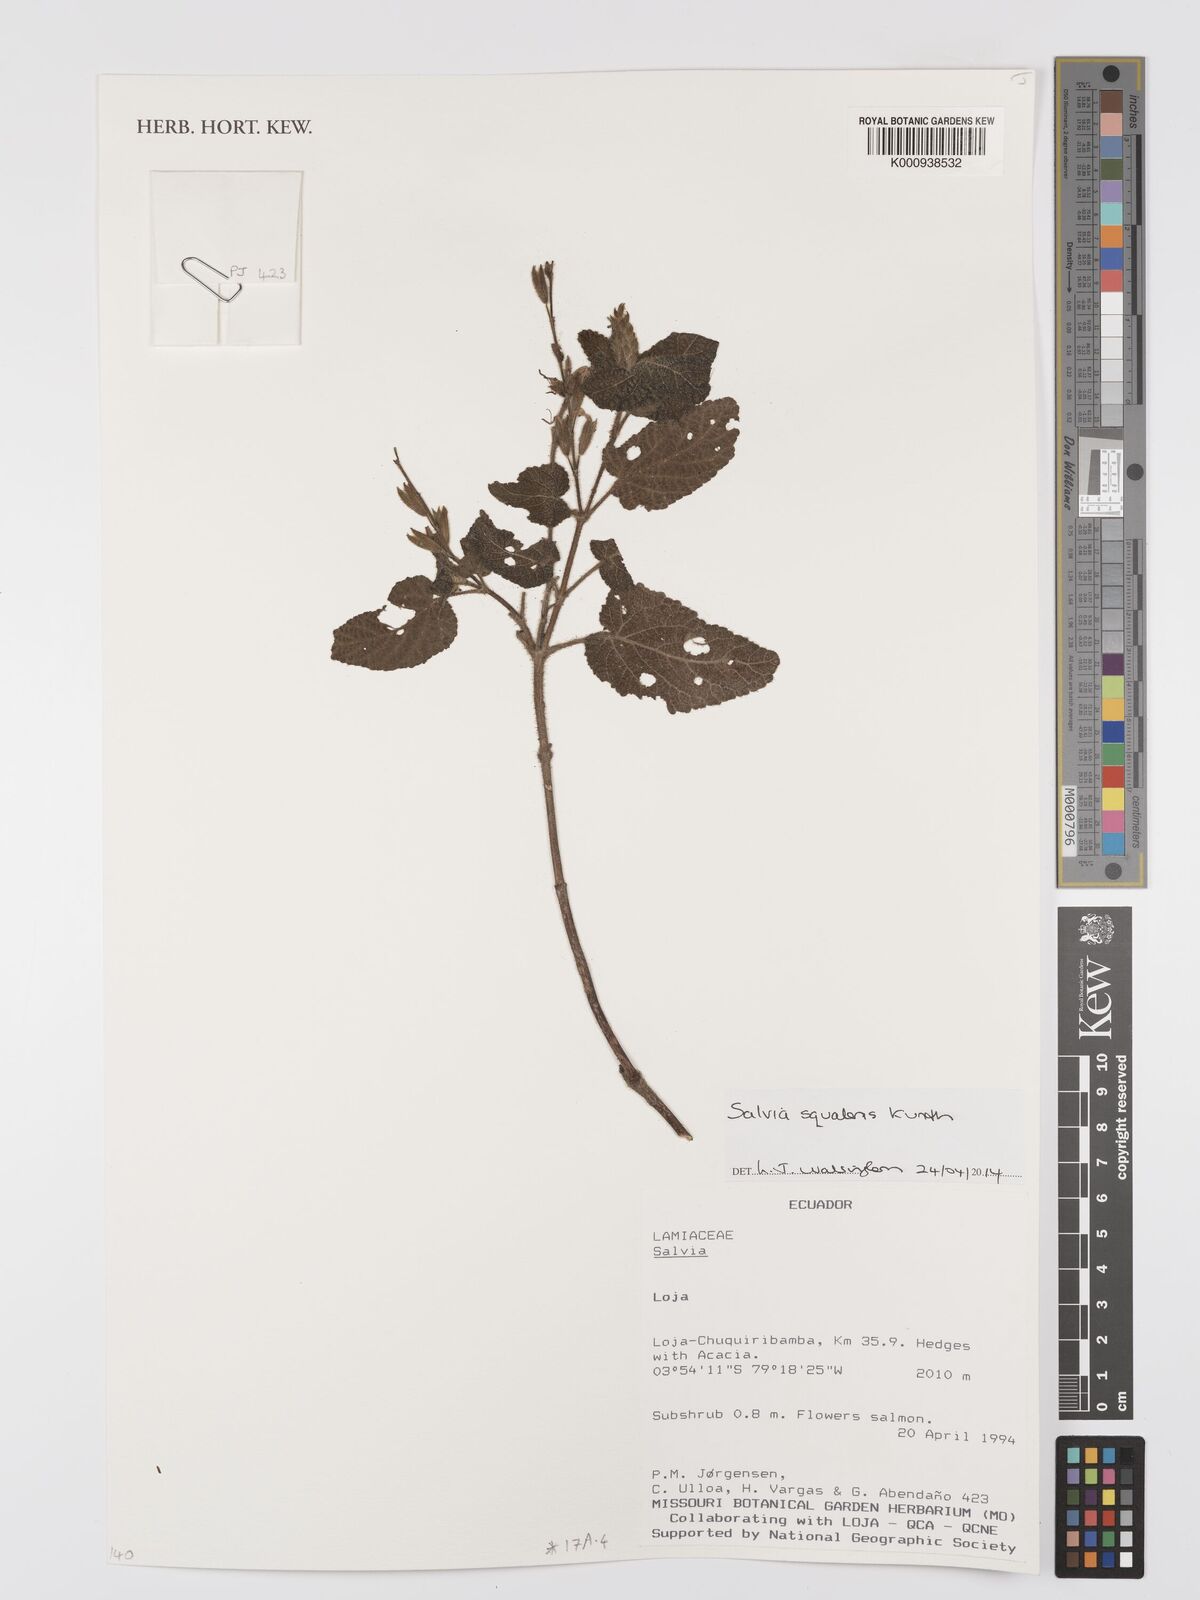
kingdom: Plantae
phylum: Tracheophyta
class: Magnoliopsida
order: Lamiales
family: Lamiaceae
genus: Salvia
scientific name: Salvia squalens
